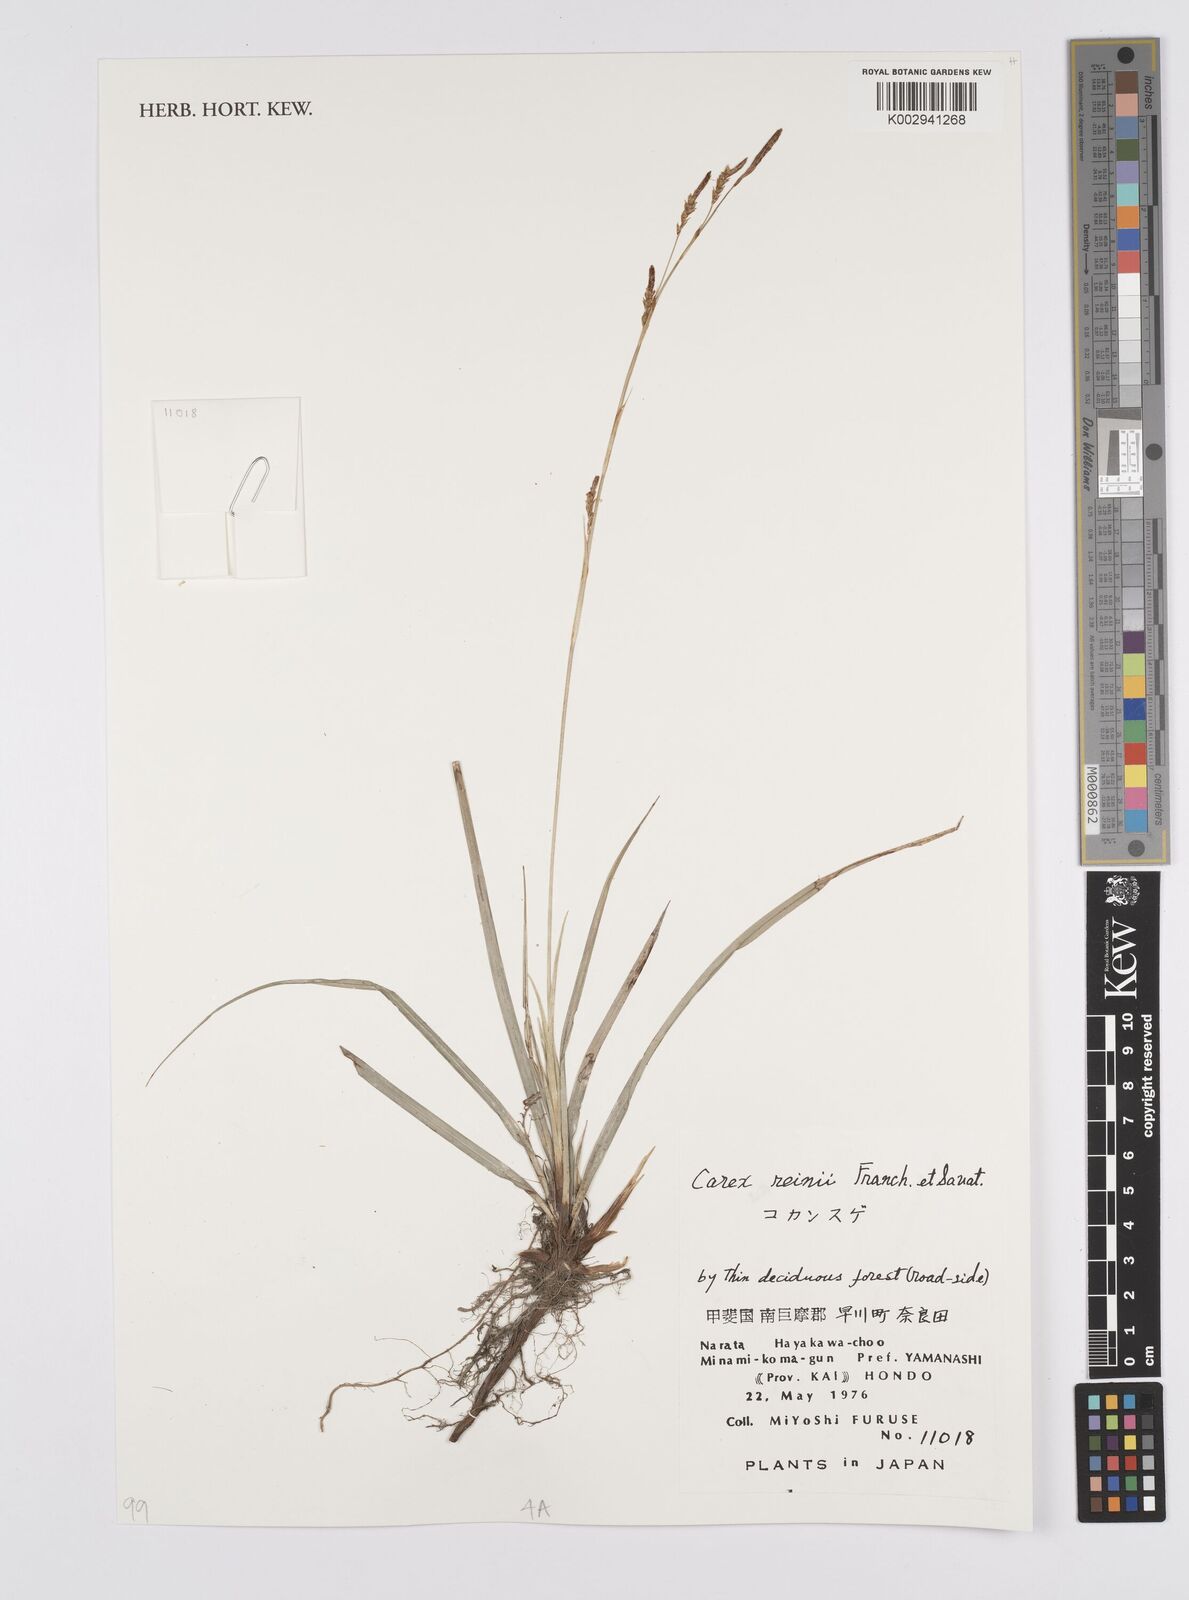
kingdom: Plantae
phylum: Tracheophyta
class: Liliopsida
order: Poales
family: Cyperaceae
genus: Carex
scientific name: Carex reinii
